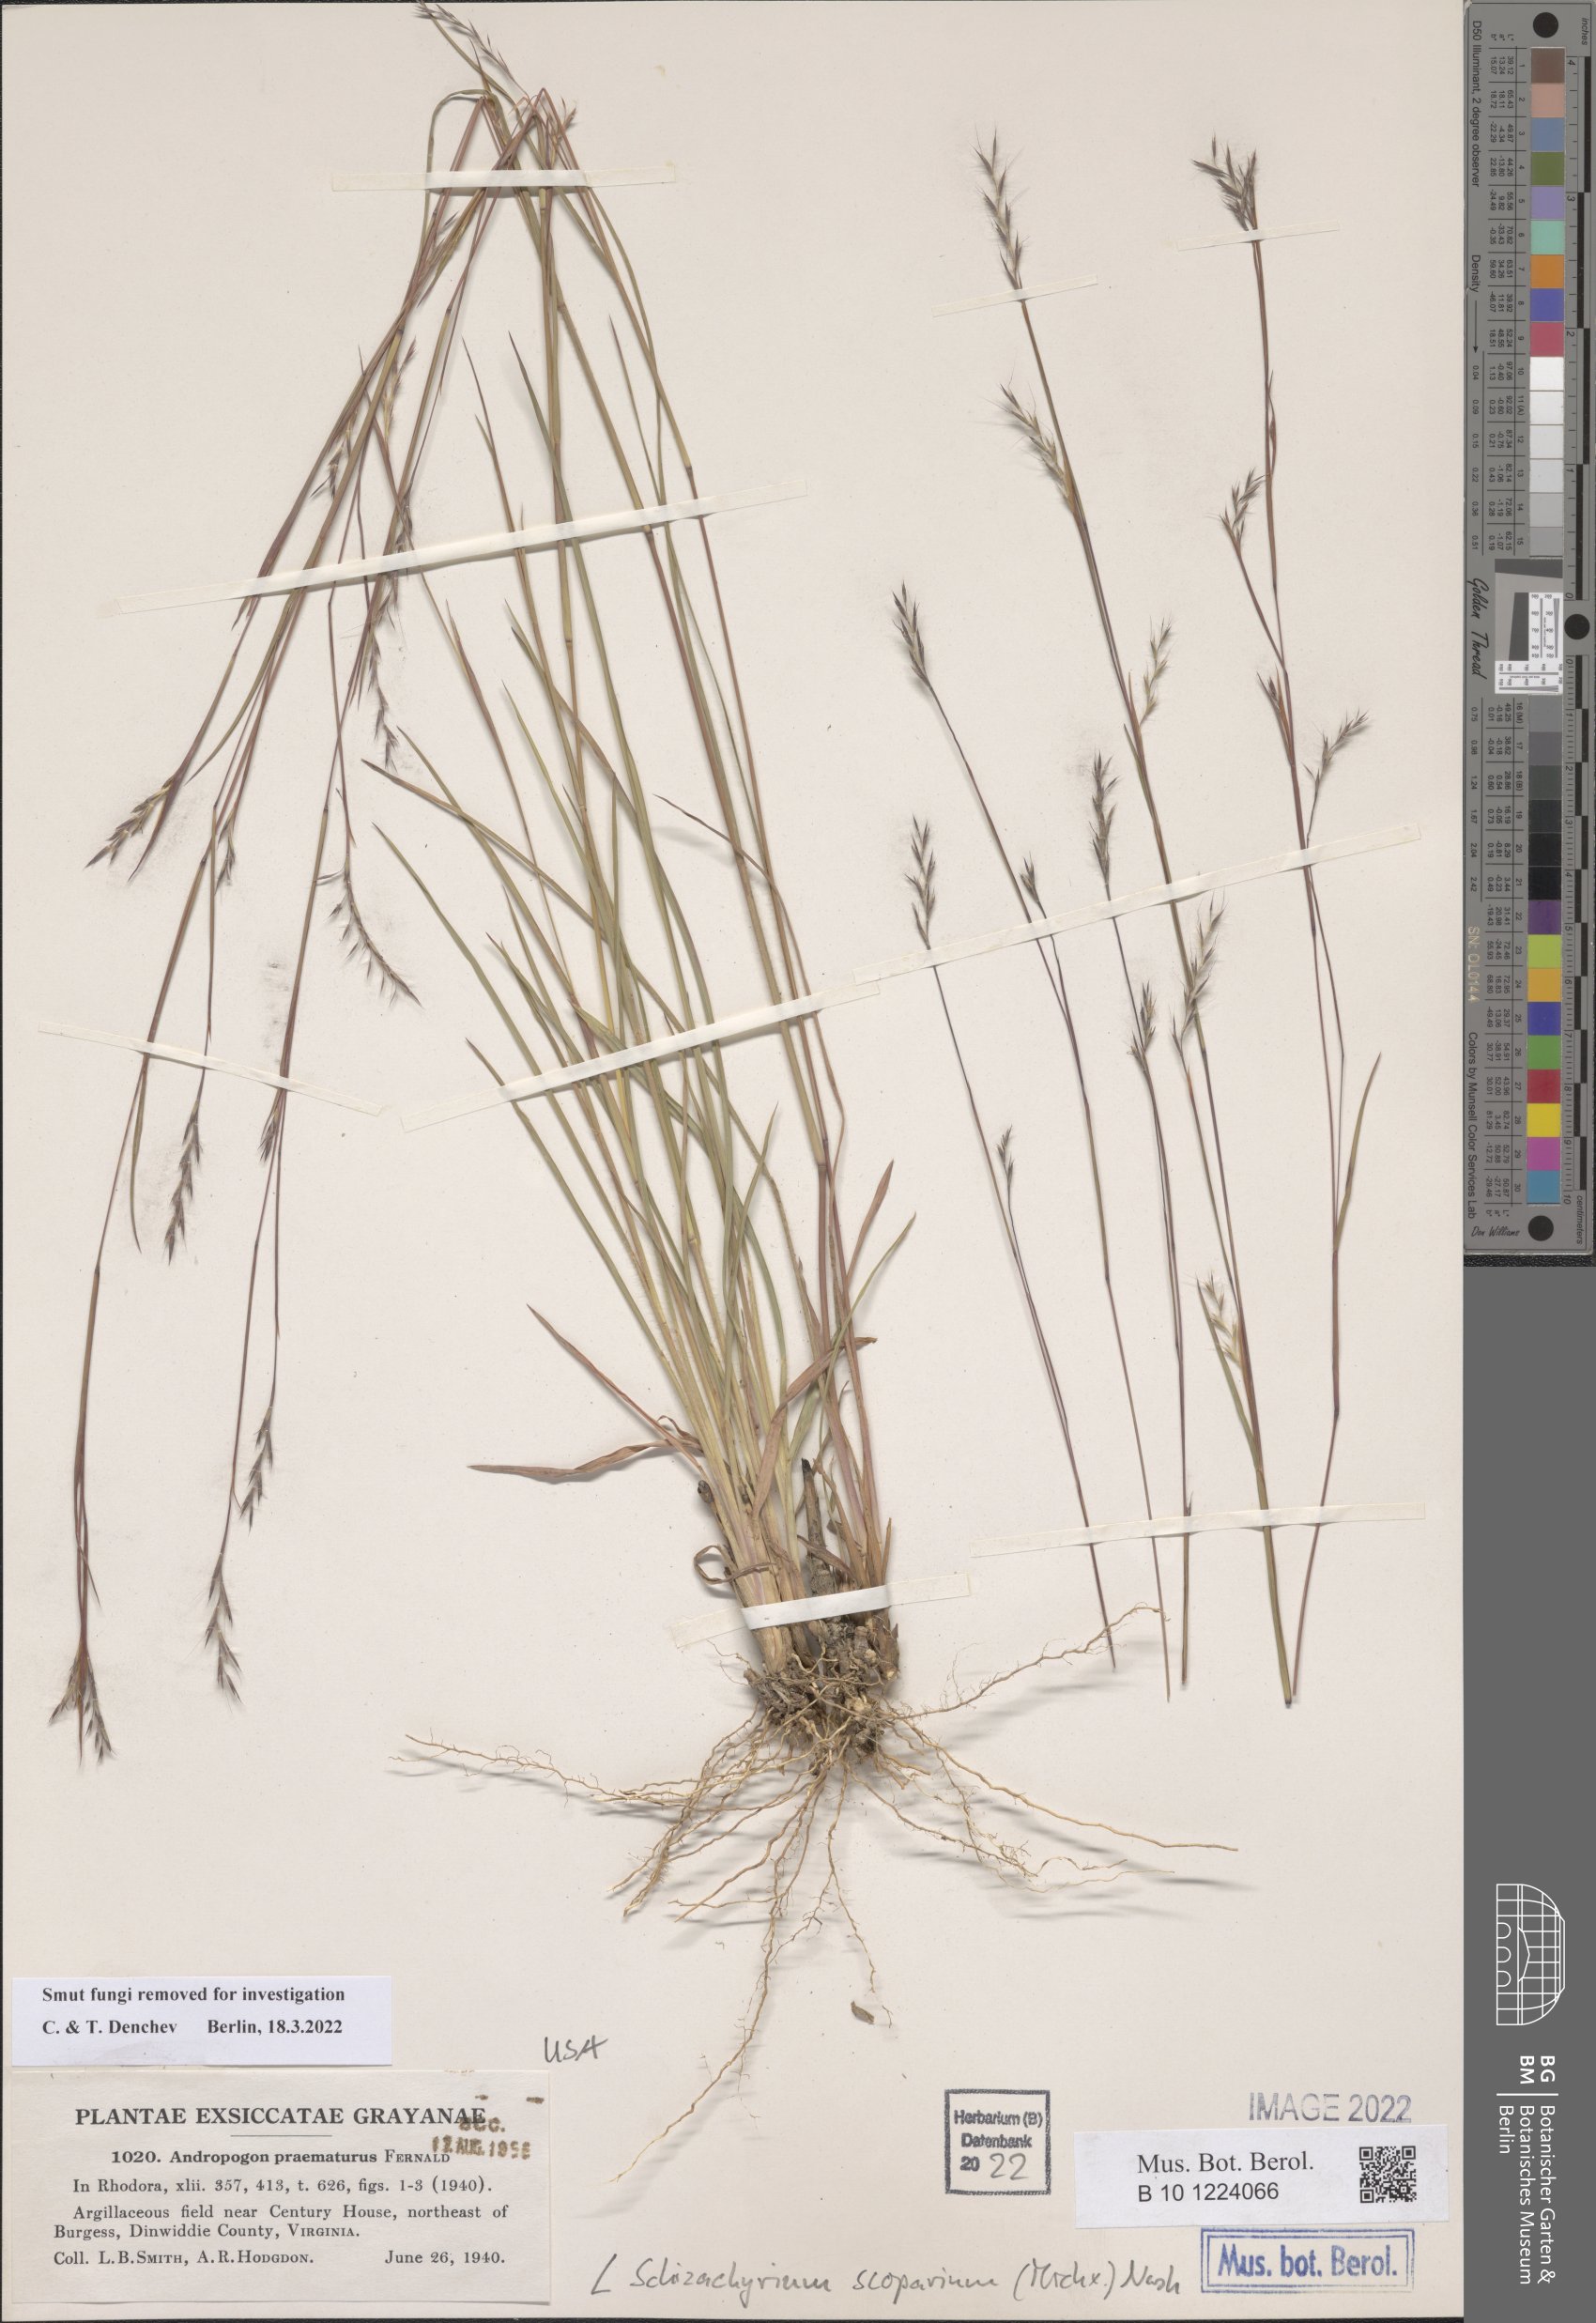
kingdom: Plantae
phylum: Tracheophyta
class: Liliopsida
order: Poales
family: Poaceae
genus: Schizachyrium
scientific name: Schizachyrium scoparium
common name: Little bluestem
